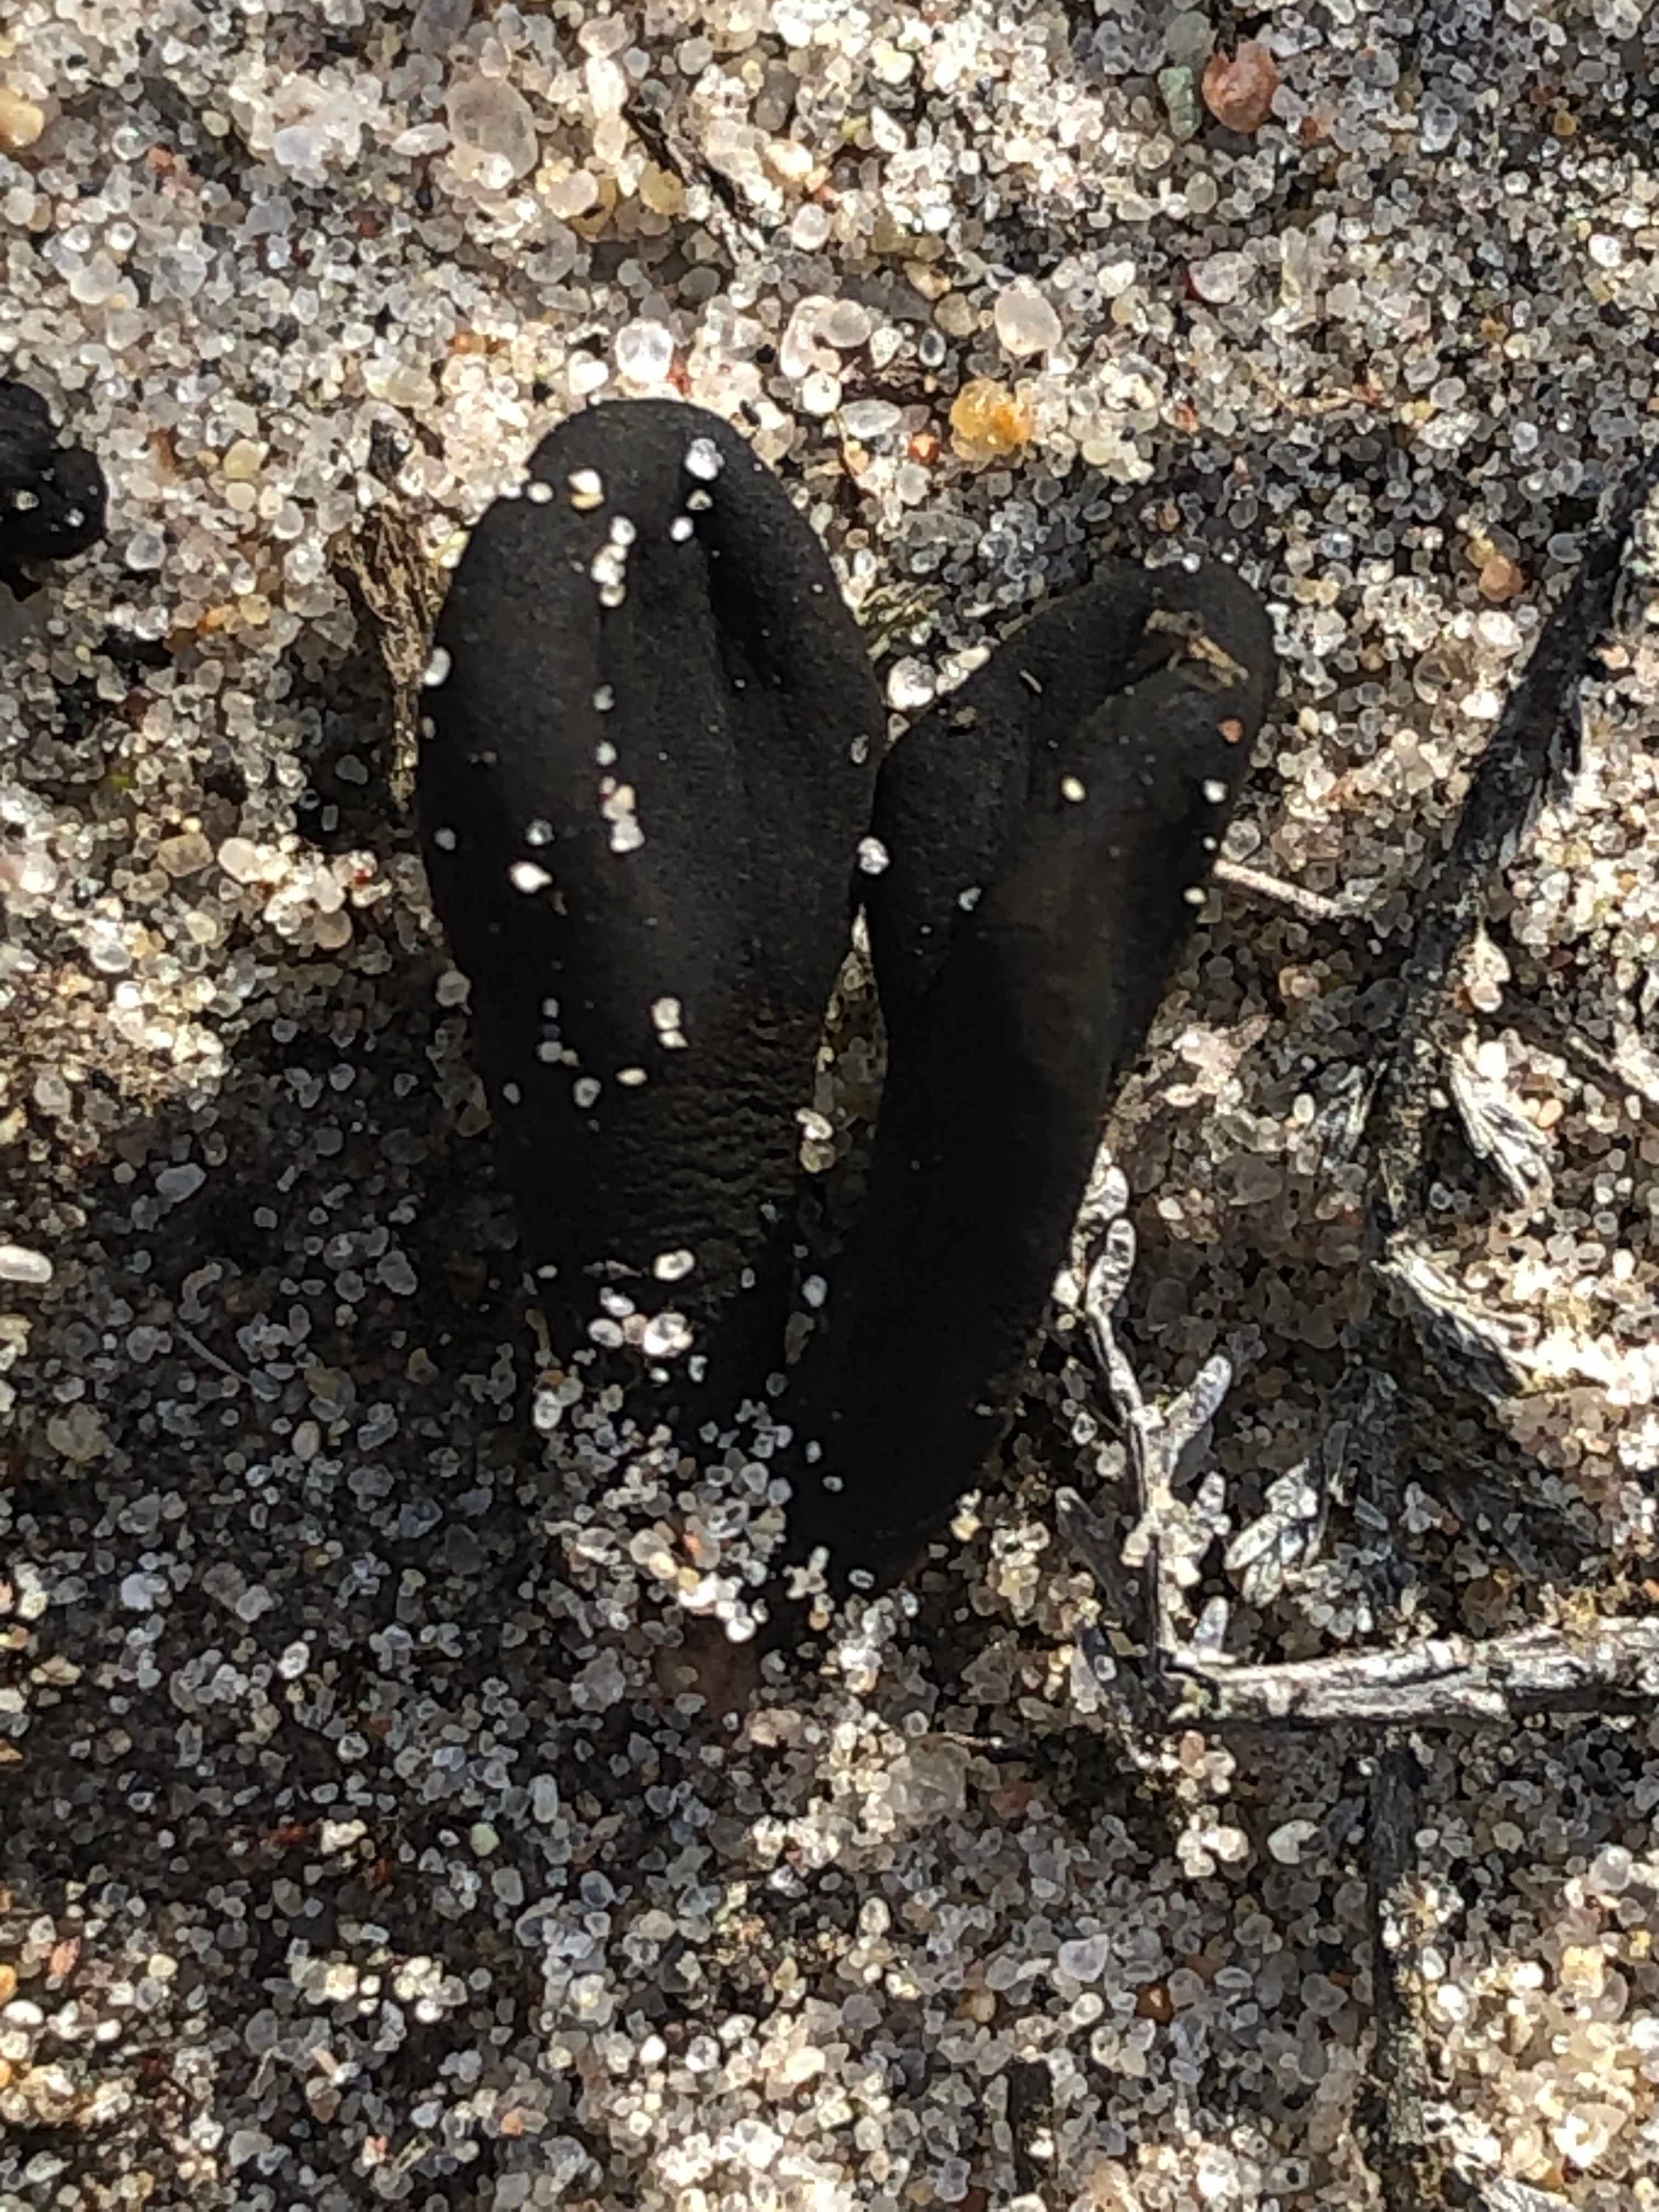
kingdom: Fungi
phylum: Ascomycota
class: Geoglossomycetes
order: Geoglossales
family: Geoglossaceae
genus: Sabuloglossum
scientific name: Sabuloglossum arenarium
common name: klit-jordtunge
